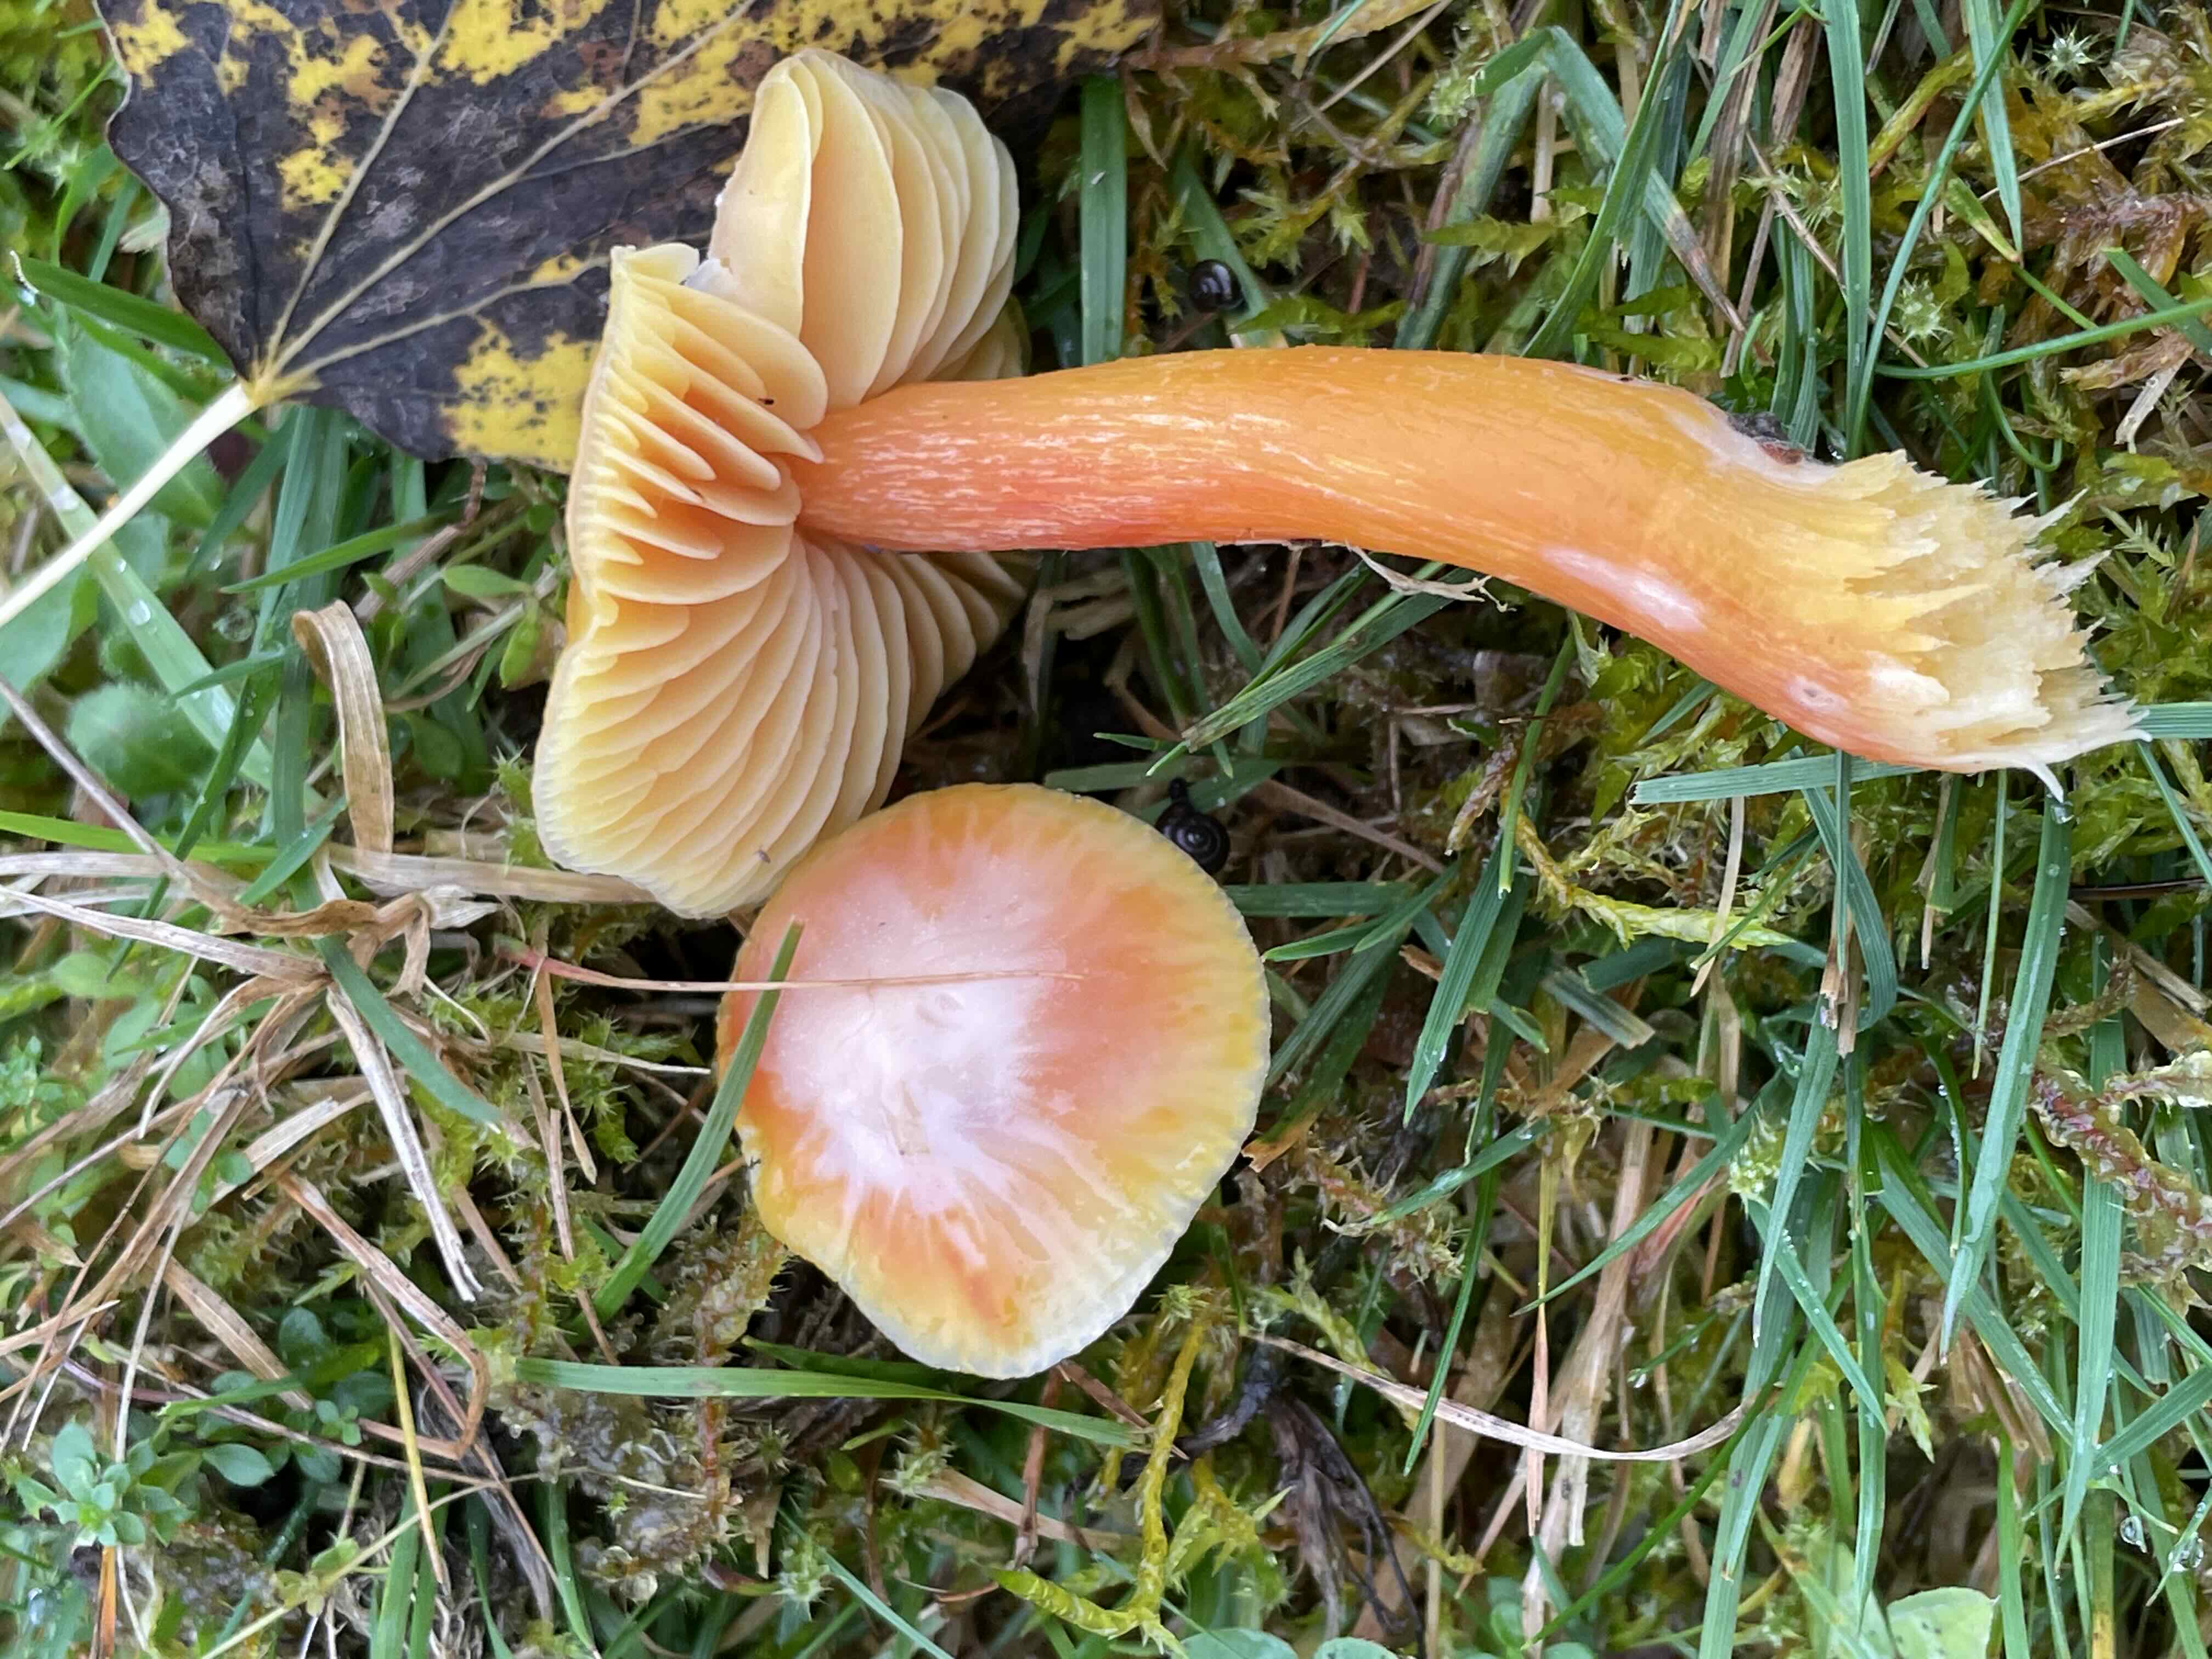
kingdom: Fungi
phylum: Basidiomycota
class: Agaricomycetes
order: Agaricales
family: Hygrophoraceae
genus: Hygrocybe
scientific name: Hygrocybe punicea
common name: skarlagen-vokshat
